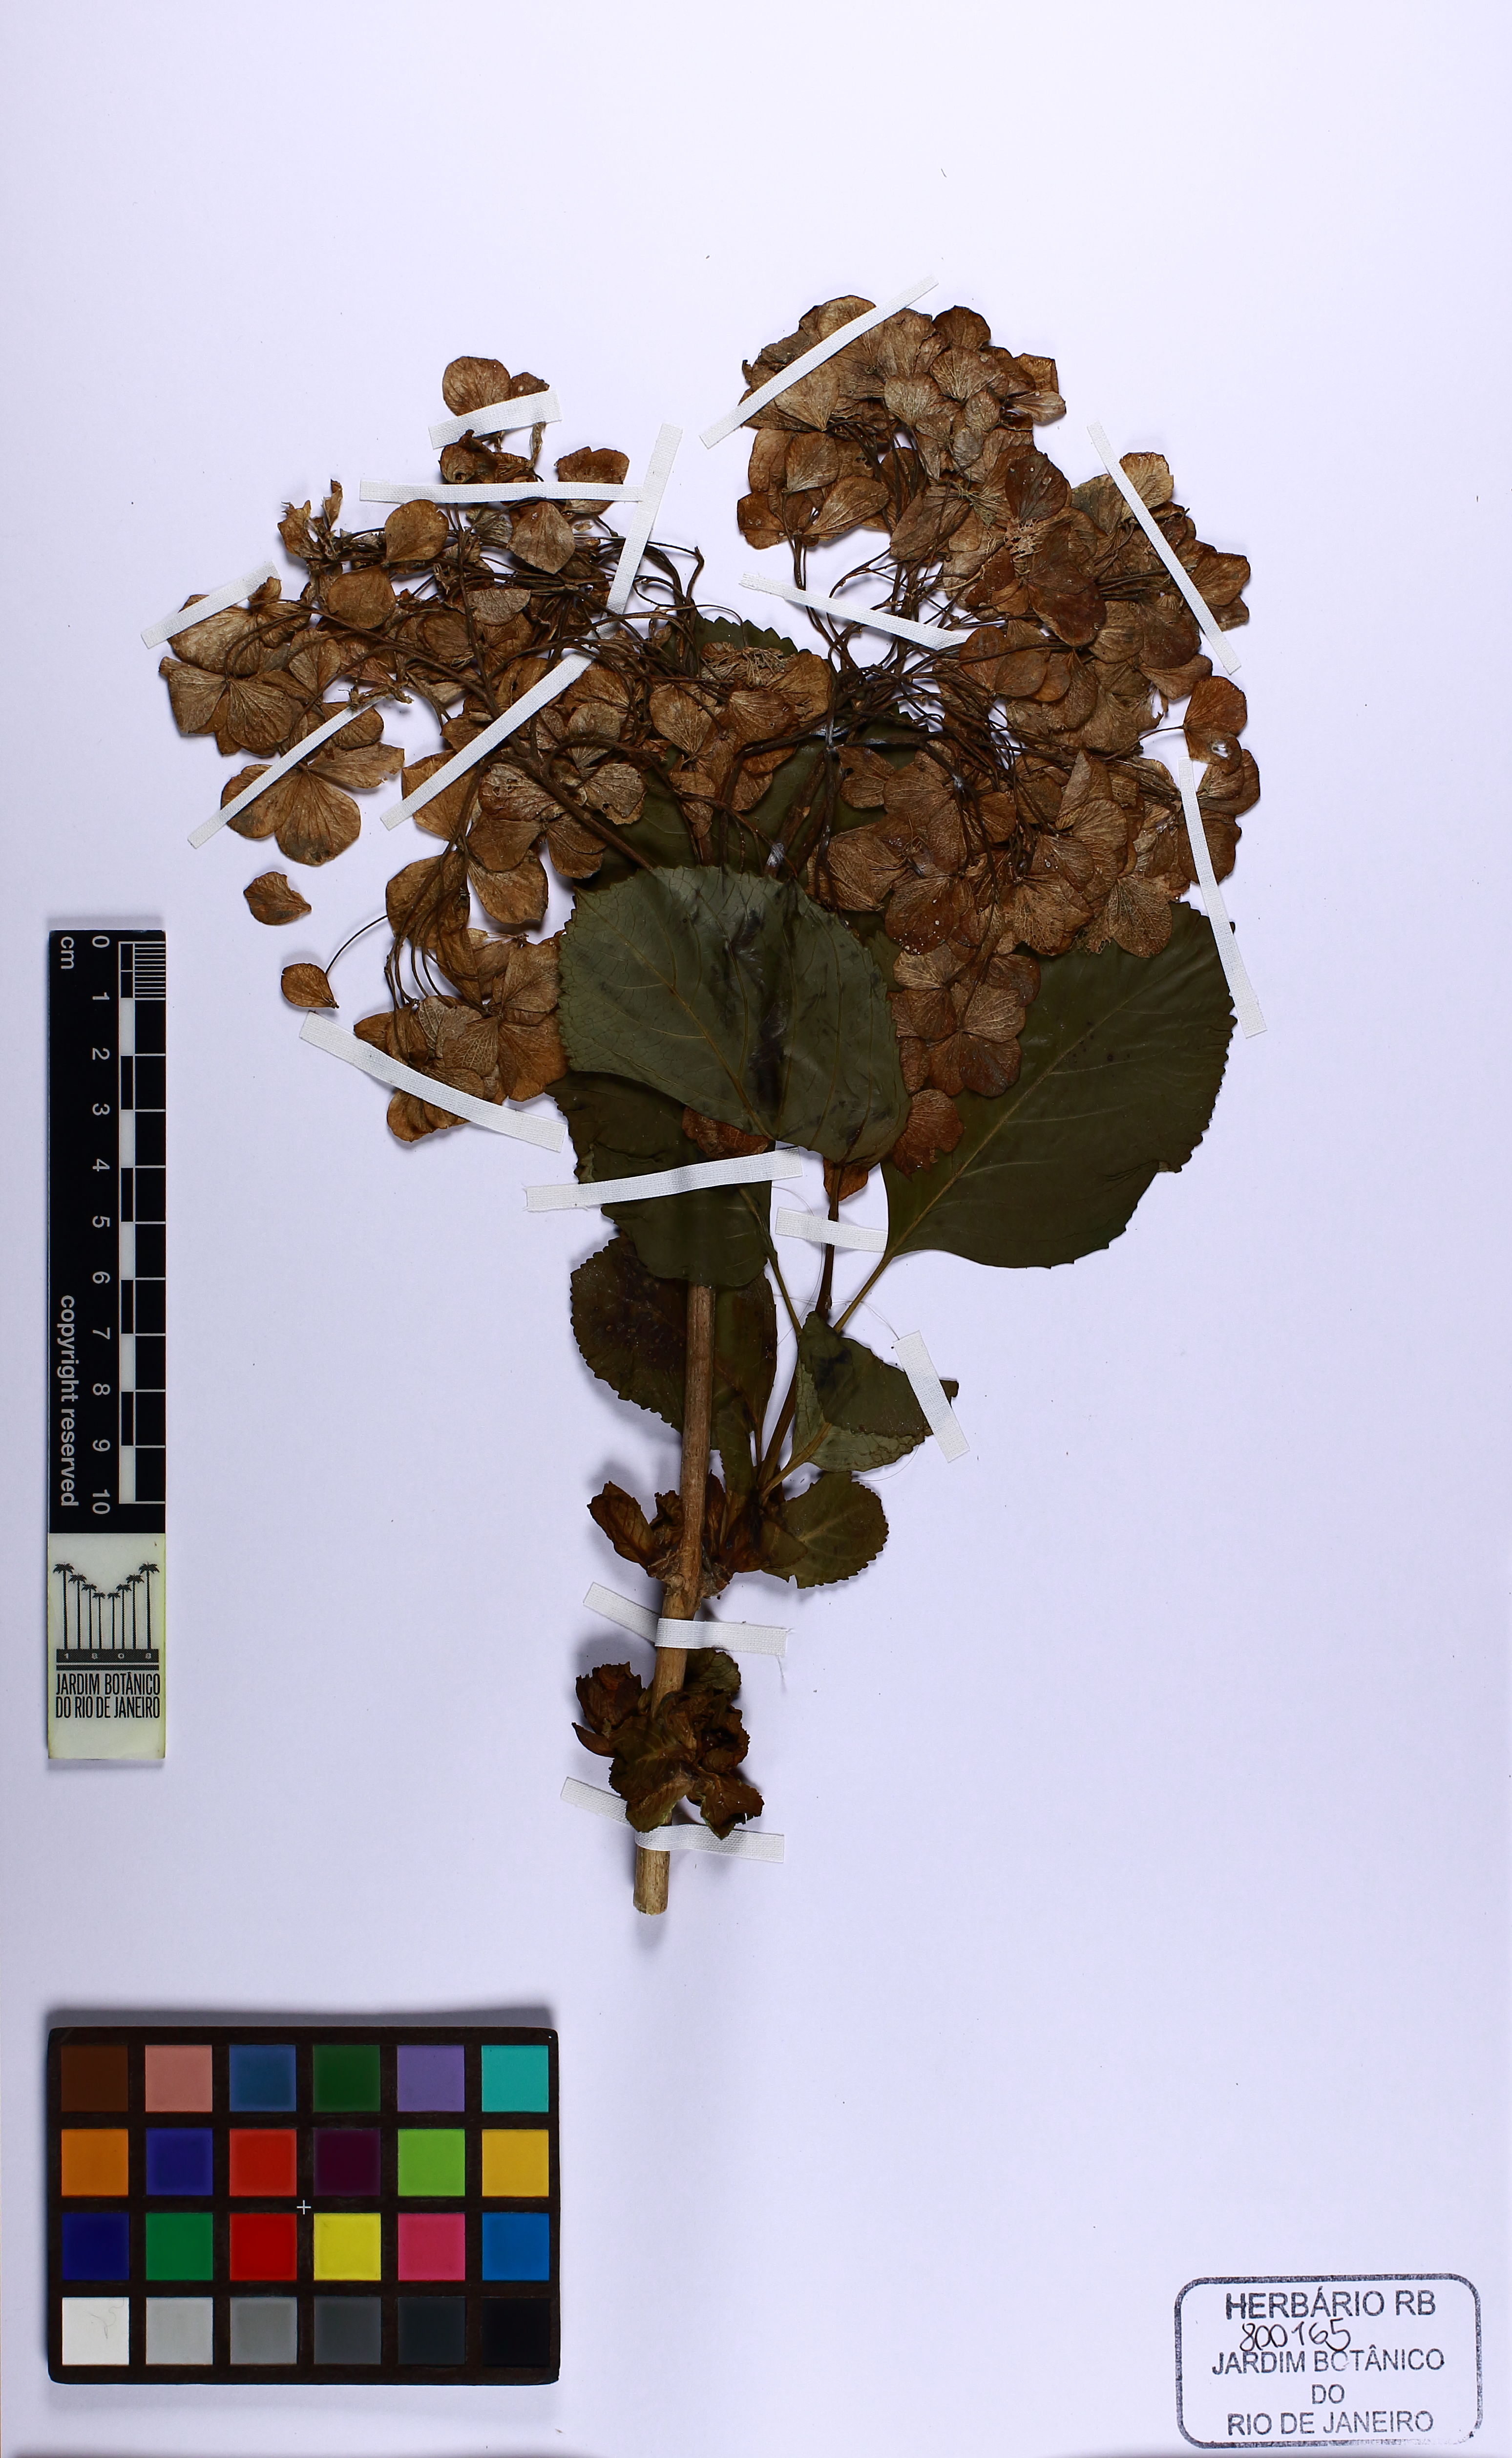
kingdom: Plantae
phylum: Tracheophyta
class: Magnoliopsida
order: Cornales
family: Hydrangeaceae
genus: Hydrangea
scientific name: Hydrangea macrophylla
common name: Hydrangea
